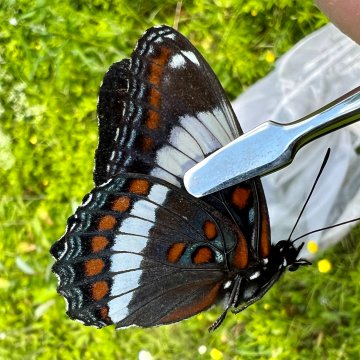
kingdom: Animalia
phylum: Arthropoda
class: Insecta
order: Lepidoptera
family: Nymphalidae
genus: Limenitis
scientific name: Limenitis arthemis
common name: Red-spotted Admiral
